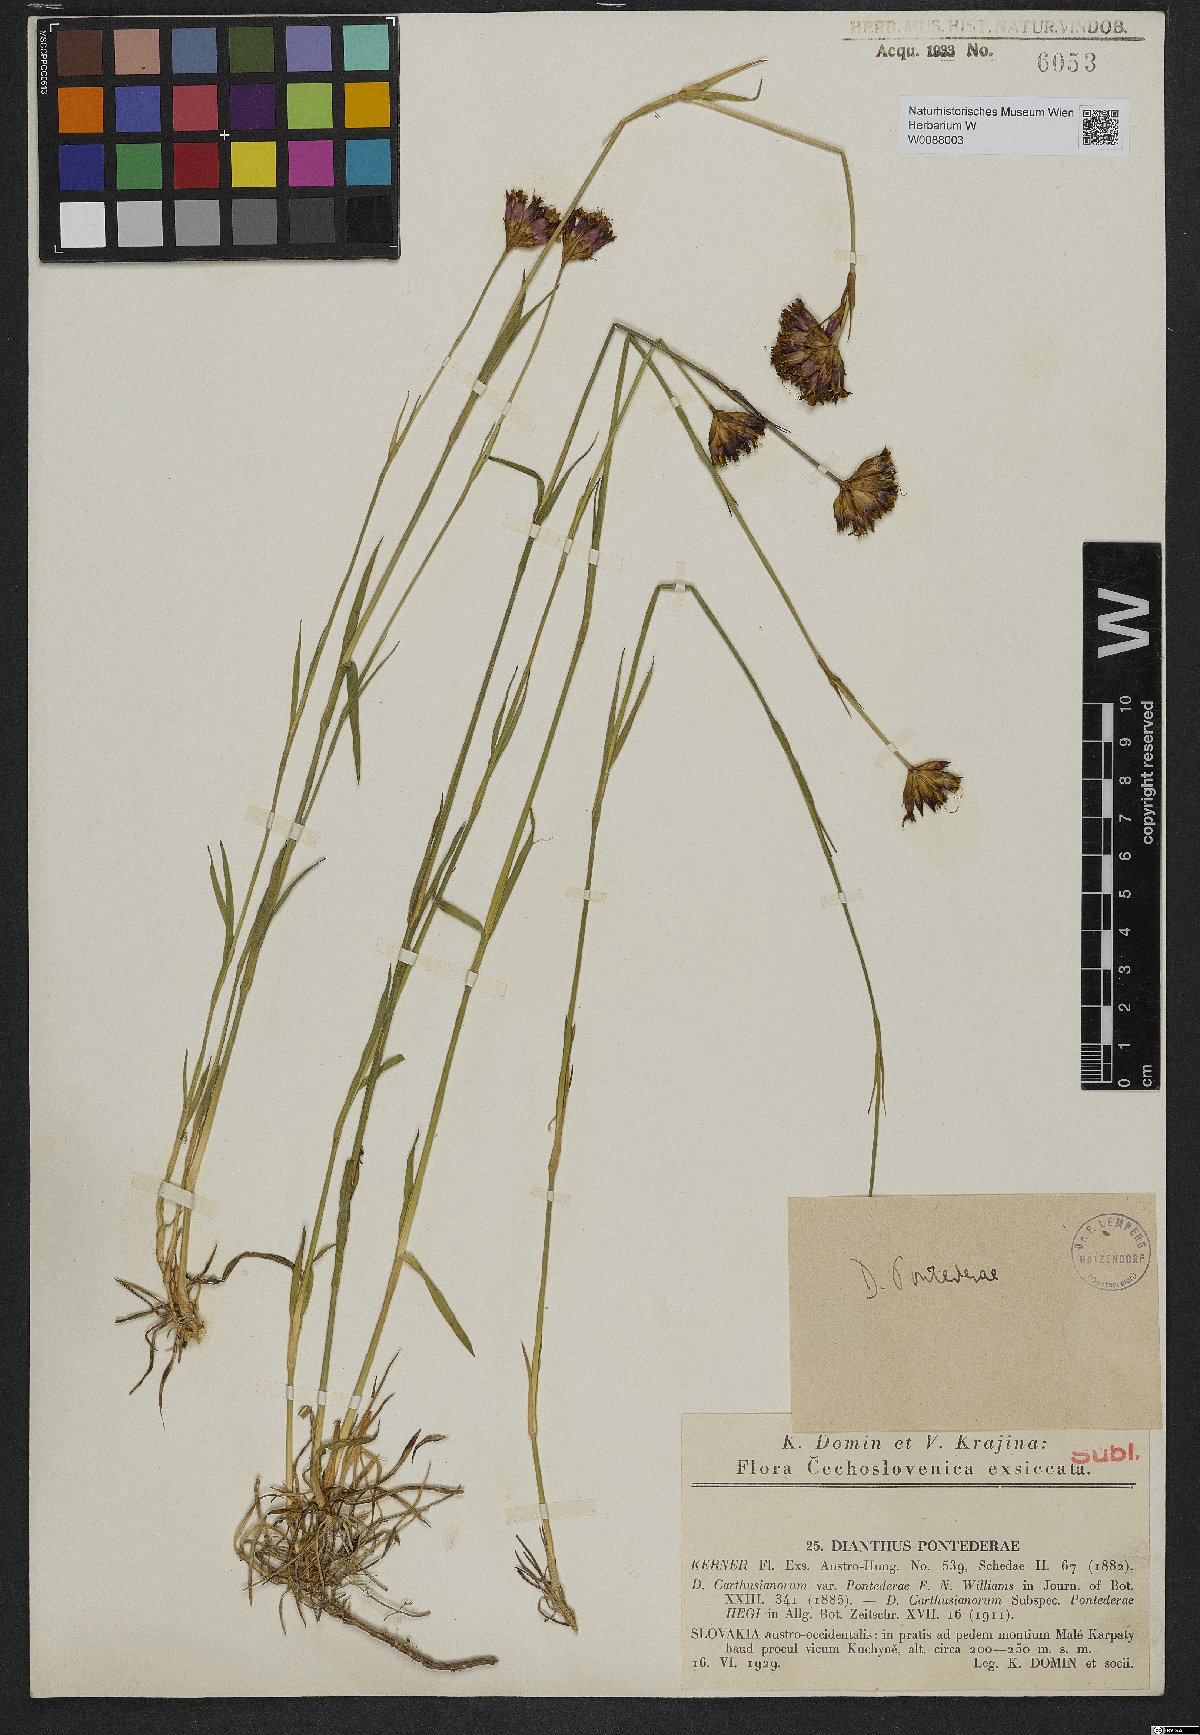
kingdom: Plantae
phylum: Tracheophyta
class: Magnoliopsida
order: Caryophyllales
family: Caryophyllaceae
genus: Dianthus
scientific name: Dianthus pontederae
